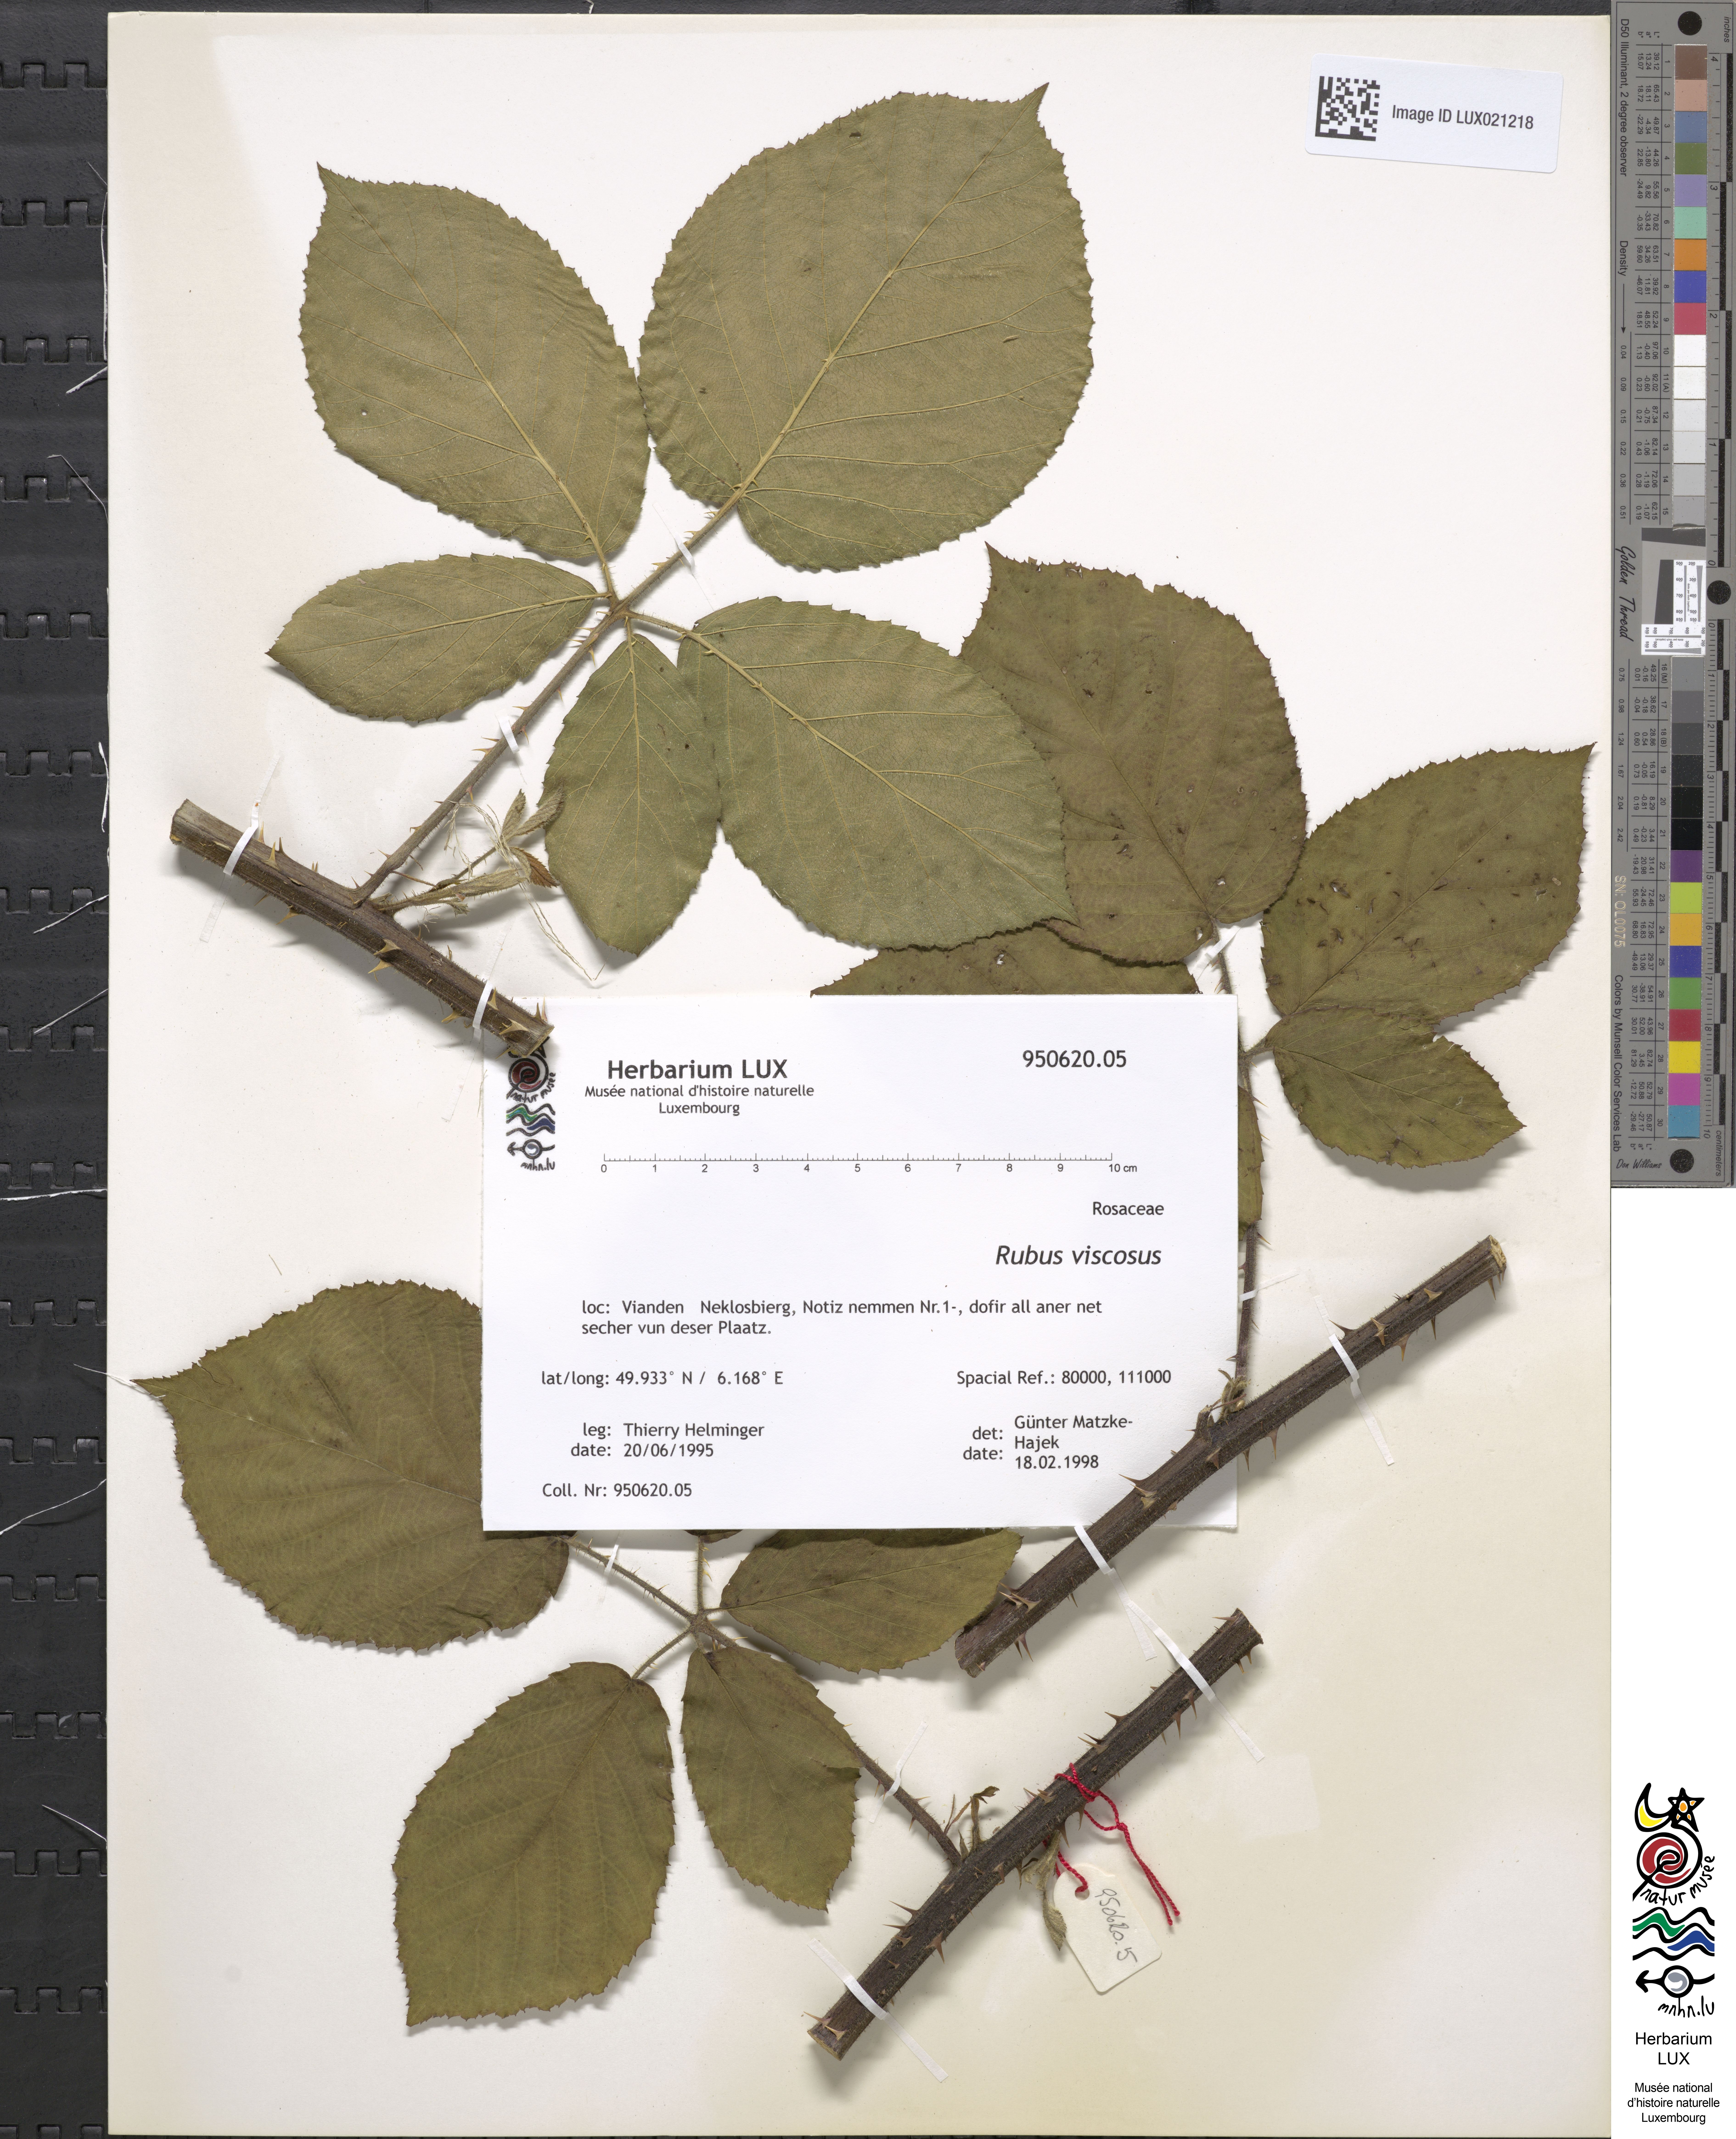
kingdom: Plantae
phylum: Tracheophyta
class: Magnoliopsida
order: Rosales
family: Rosaceae
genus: Rubus
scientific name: Rubus viscosus
